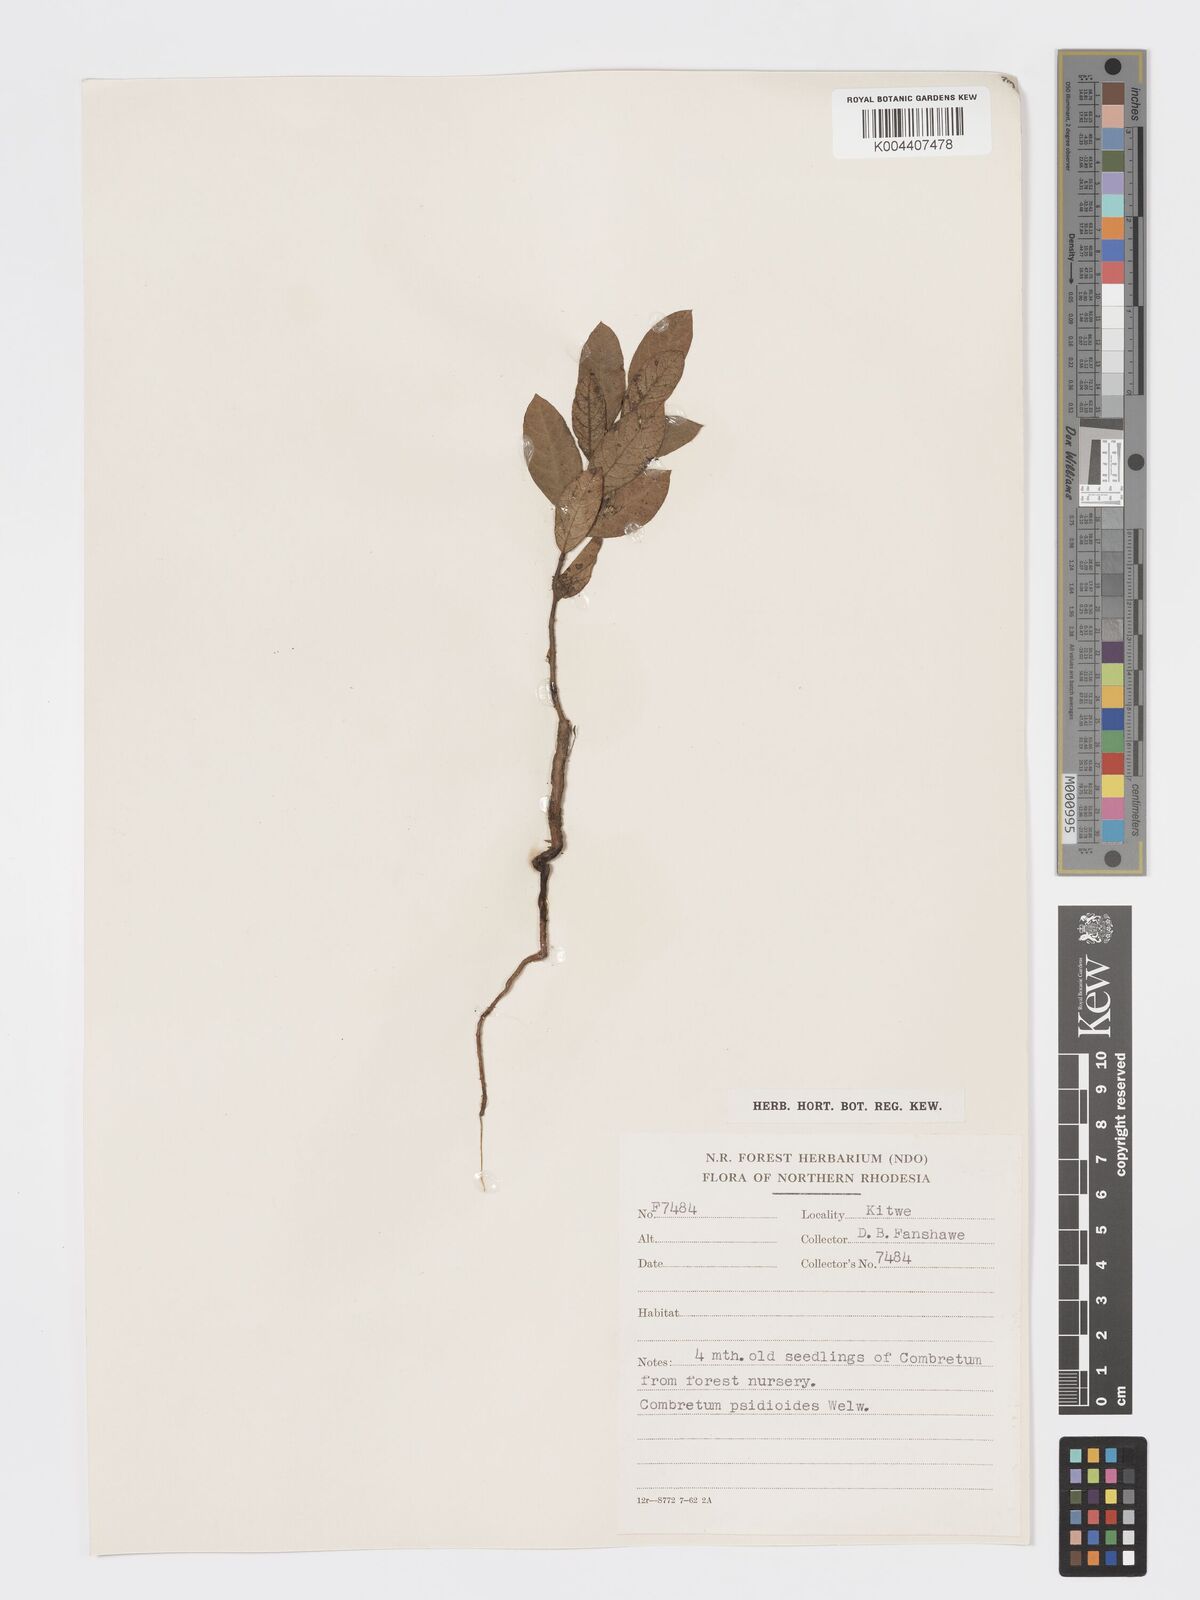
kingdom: Plantae
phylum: Tracheophyta
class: Magnoliopsida
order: Myrtales
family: Combretaceae
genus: Combretum
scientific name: Combretum psidioides
